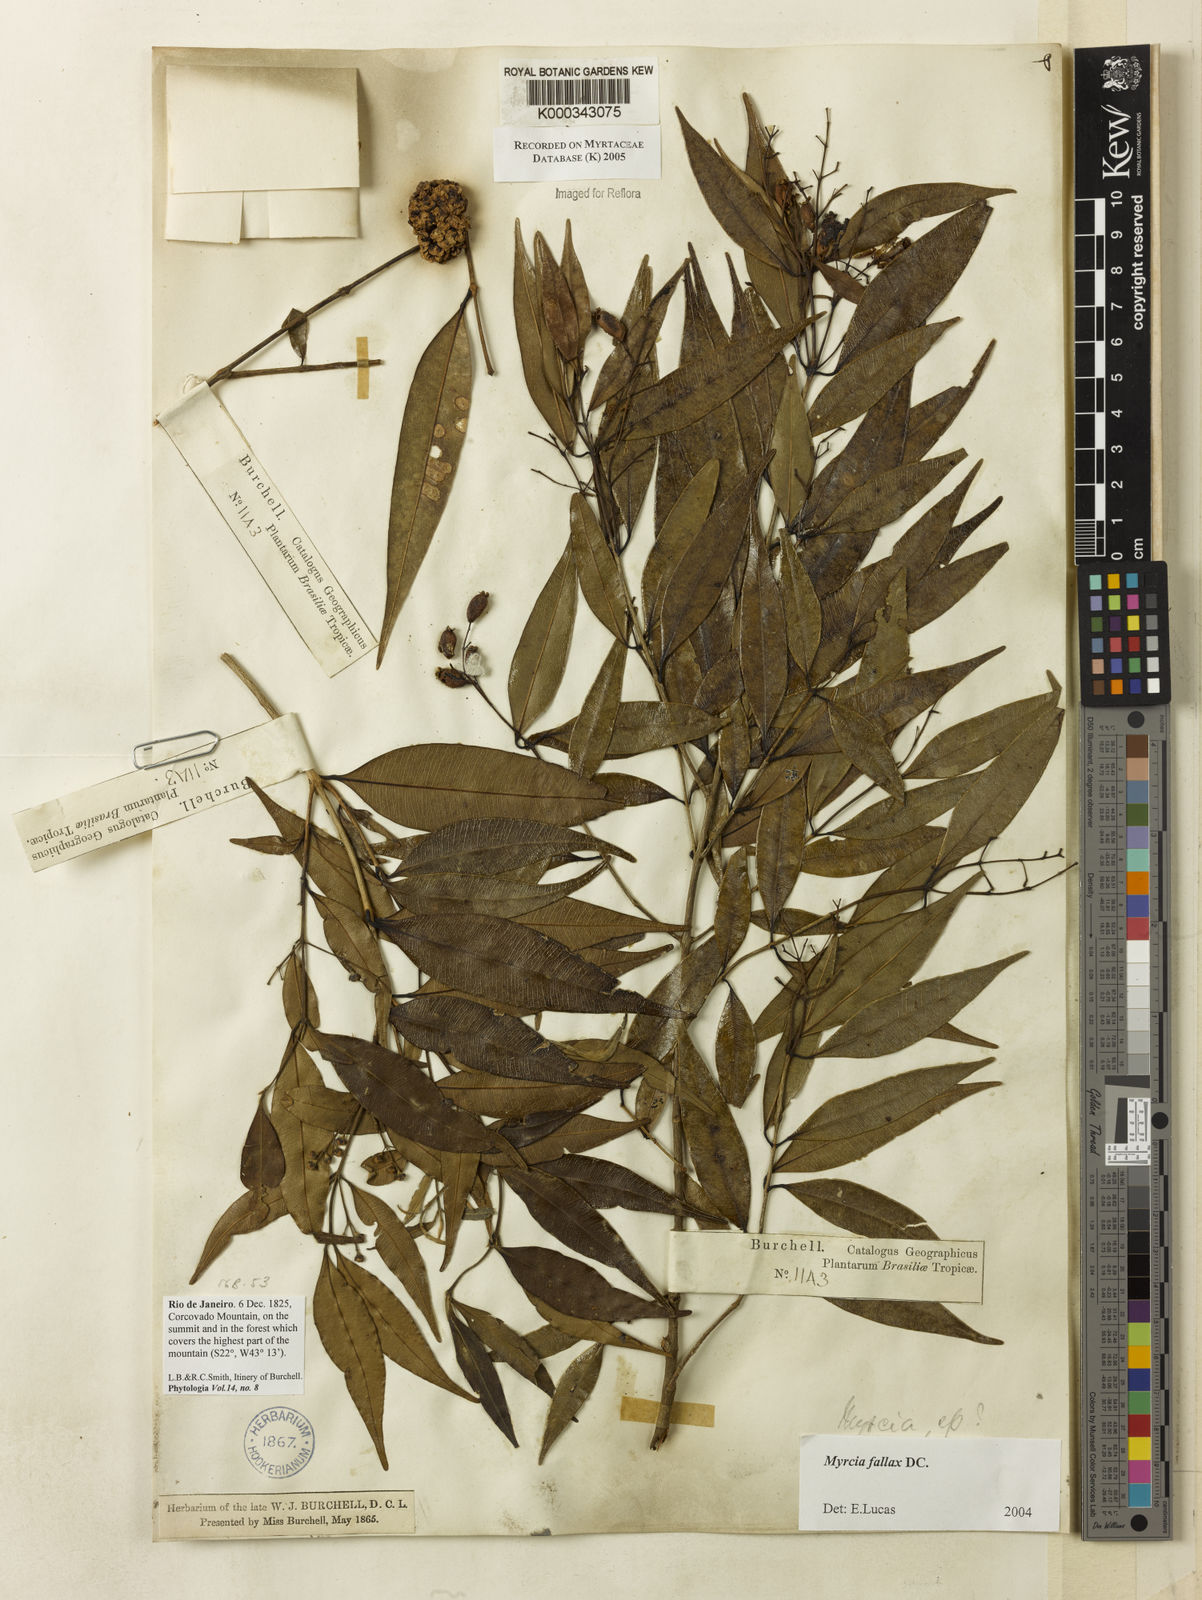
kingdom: Plantae
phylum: Tracheophyta
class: Magnoliopsida
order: Myrtales
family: Myrtaceae
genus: Myrcia
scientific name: Myrcia splendens
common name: Surinam cherry
